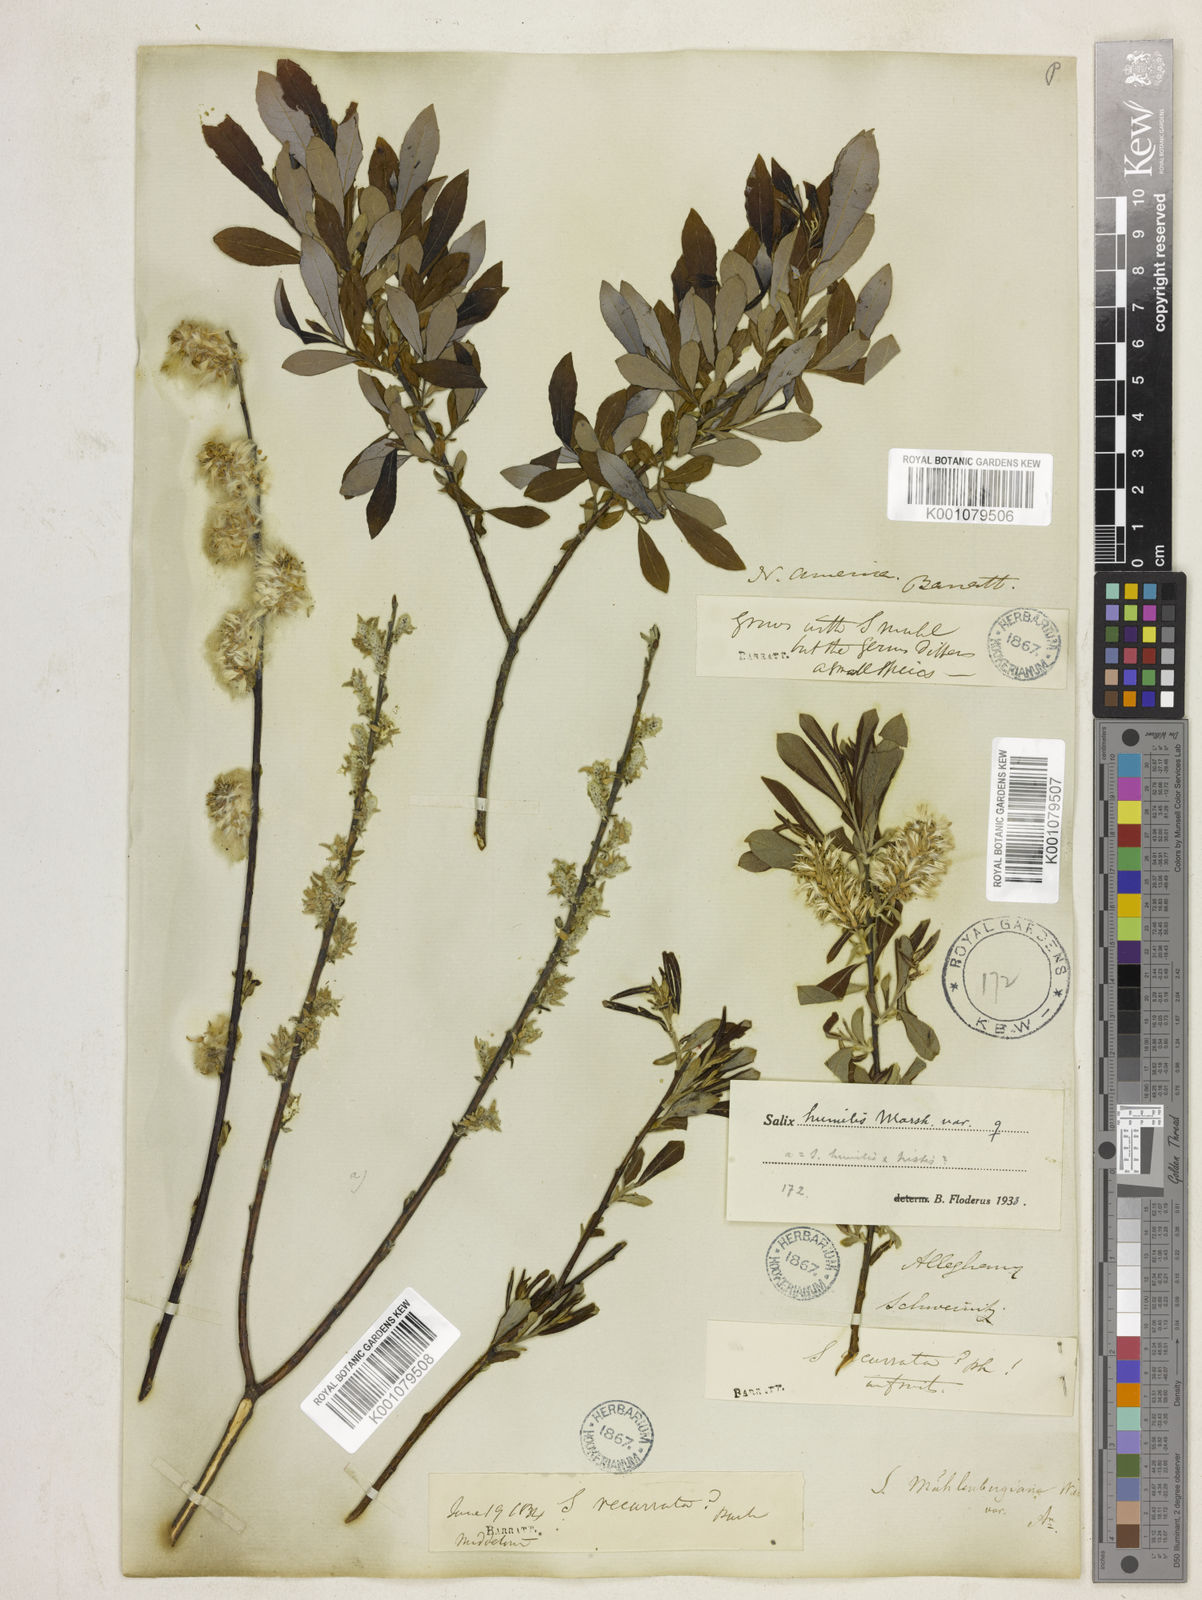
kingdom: Plantae
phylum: Tracheophyta
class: Magnoliopsida
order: Malpighiales
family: Salicaceae
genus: Salix
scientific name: Salix humilis
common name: Prairie willow
